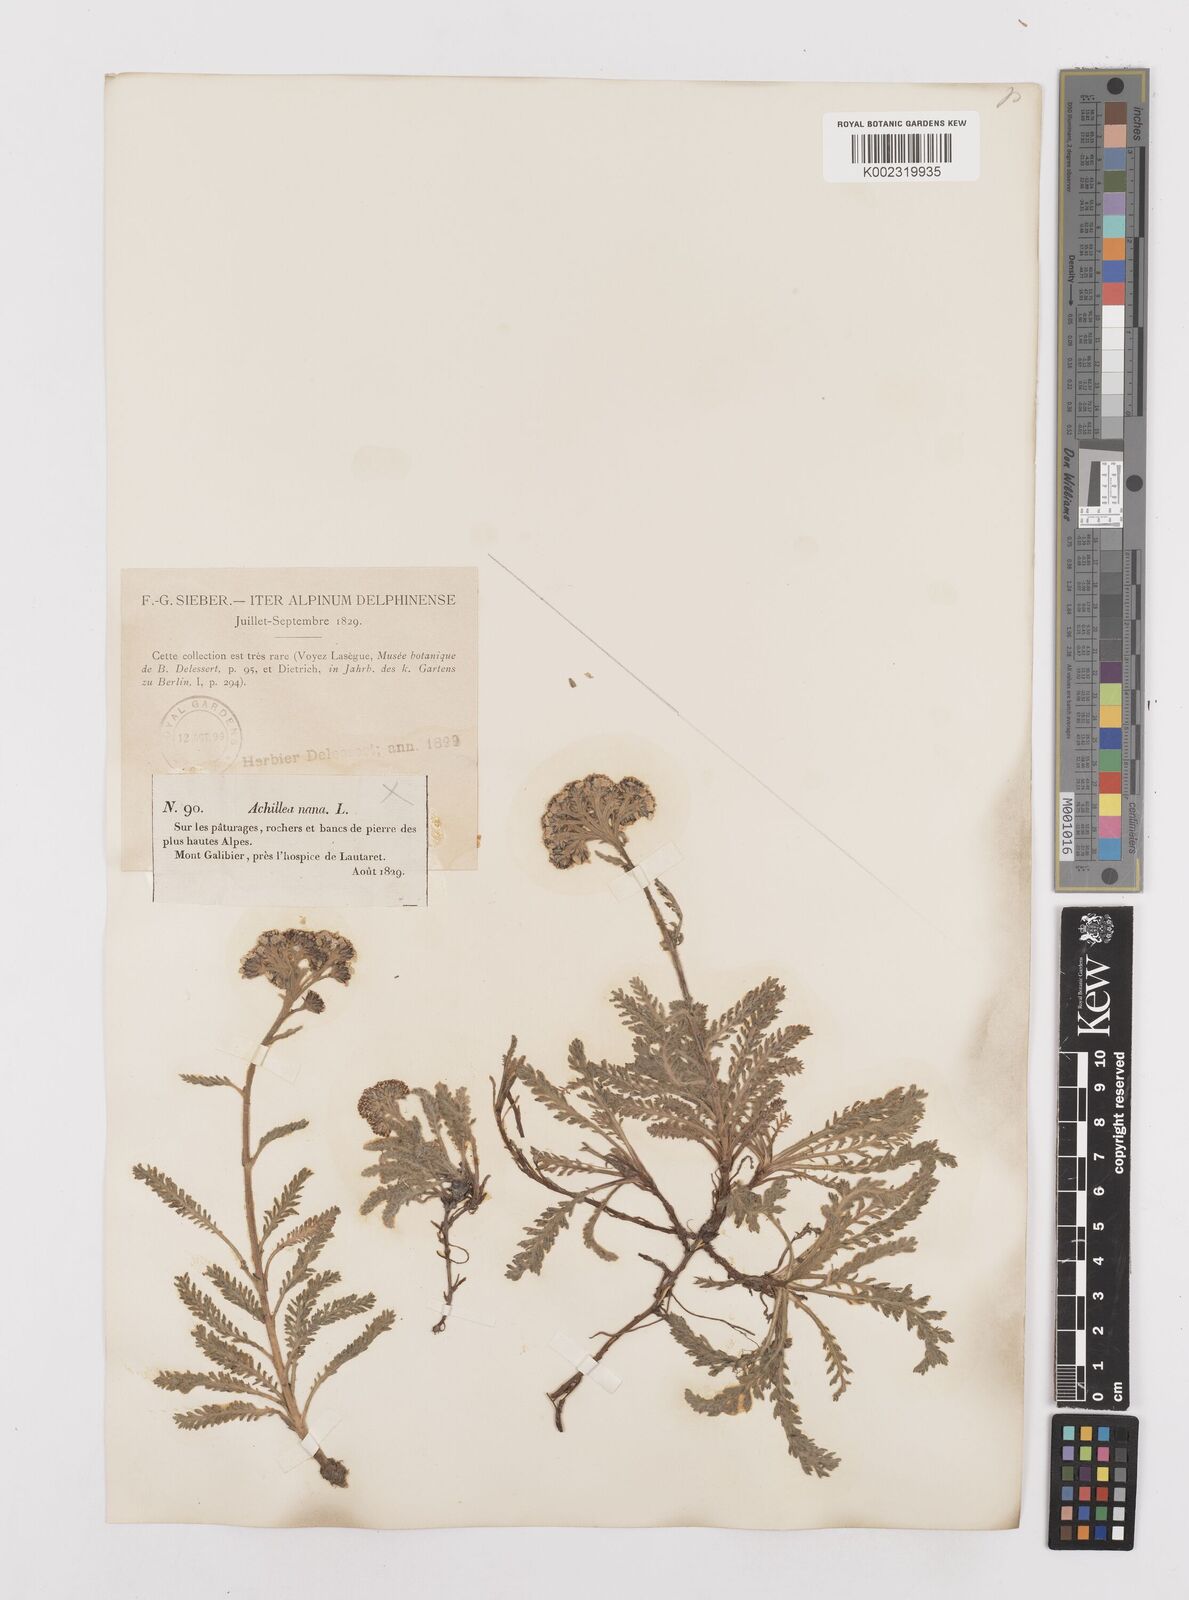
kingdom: Plantae
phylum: Tracheophyta
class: Magnoliopsida
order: Asterales
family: Asteraceae
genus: Achillea
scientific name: Achillea
